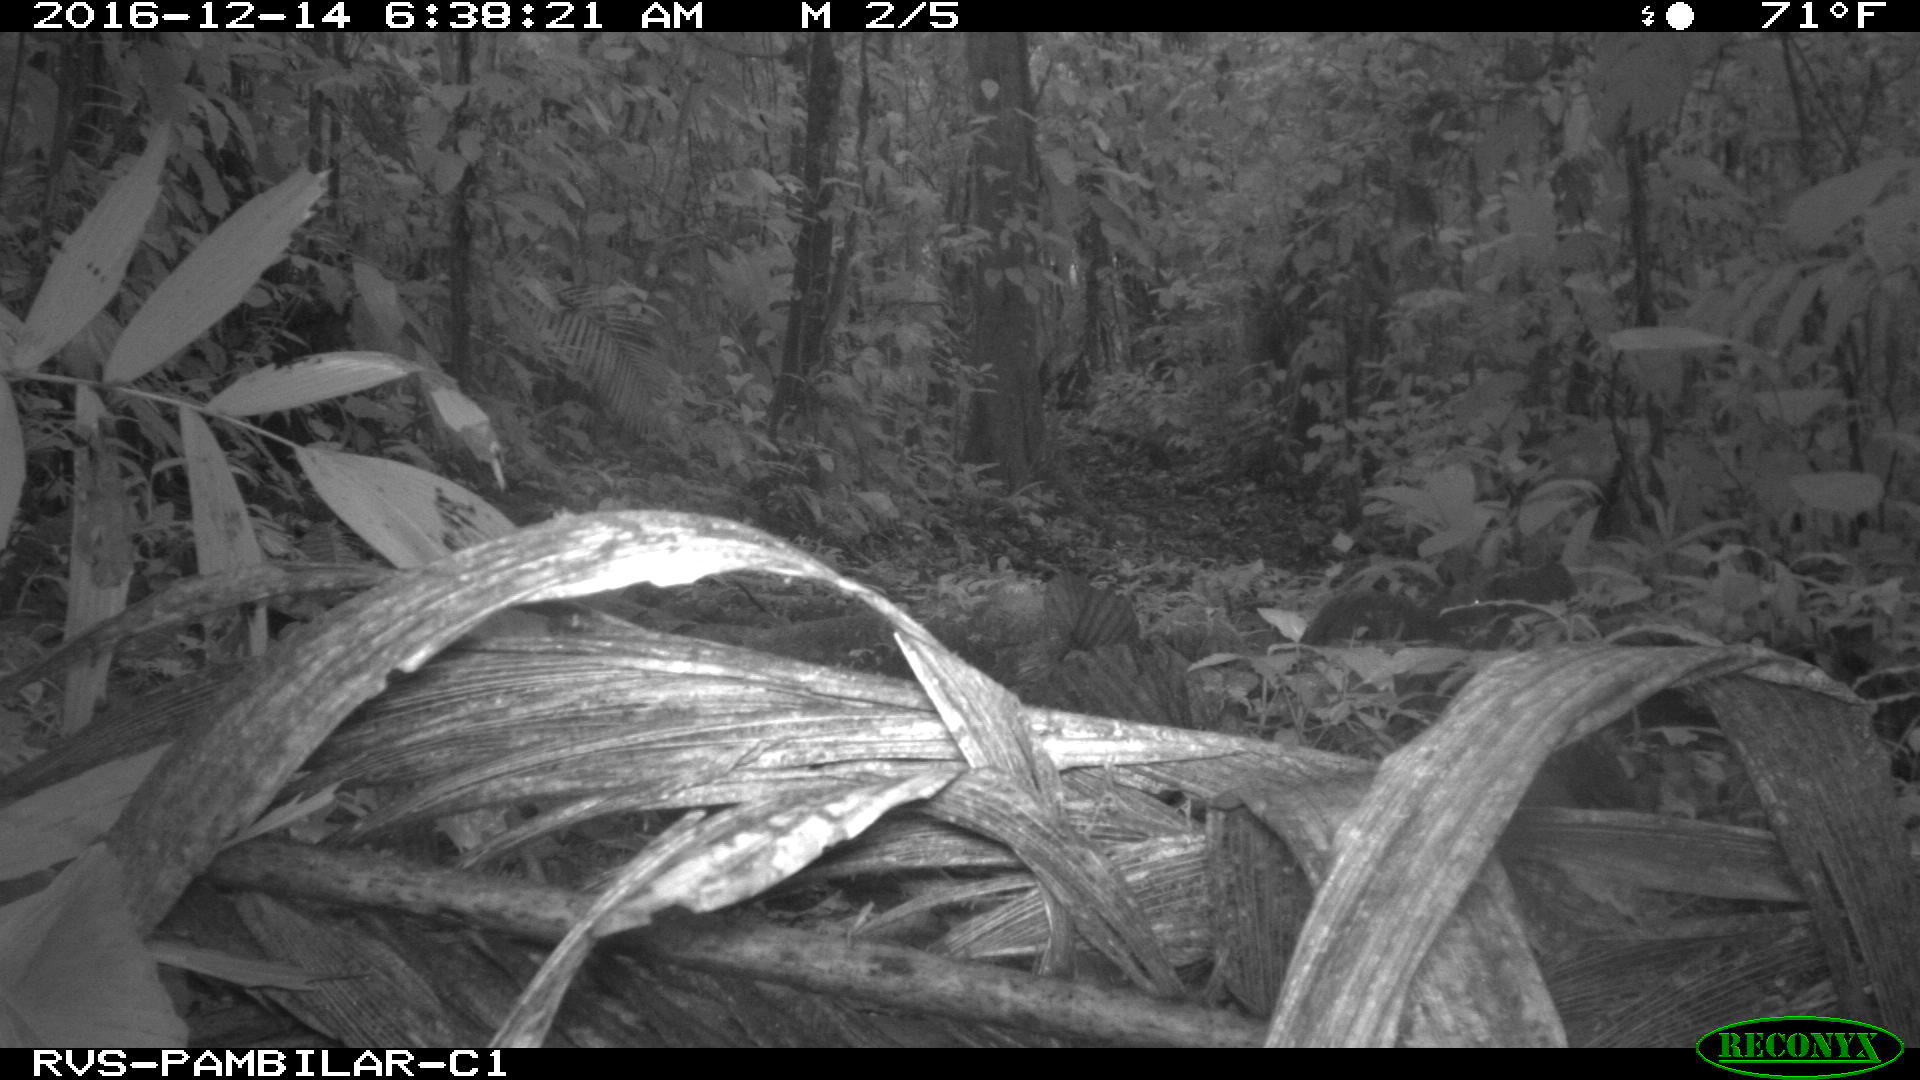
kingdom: Animalia
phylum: Chordata
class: Mammalia
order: Rodentia
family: Dasyproctidae
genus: Dasyprocta
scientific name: Dasyprocta punctata
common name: Central american agouti
